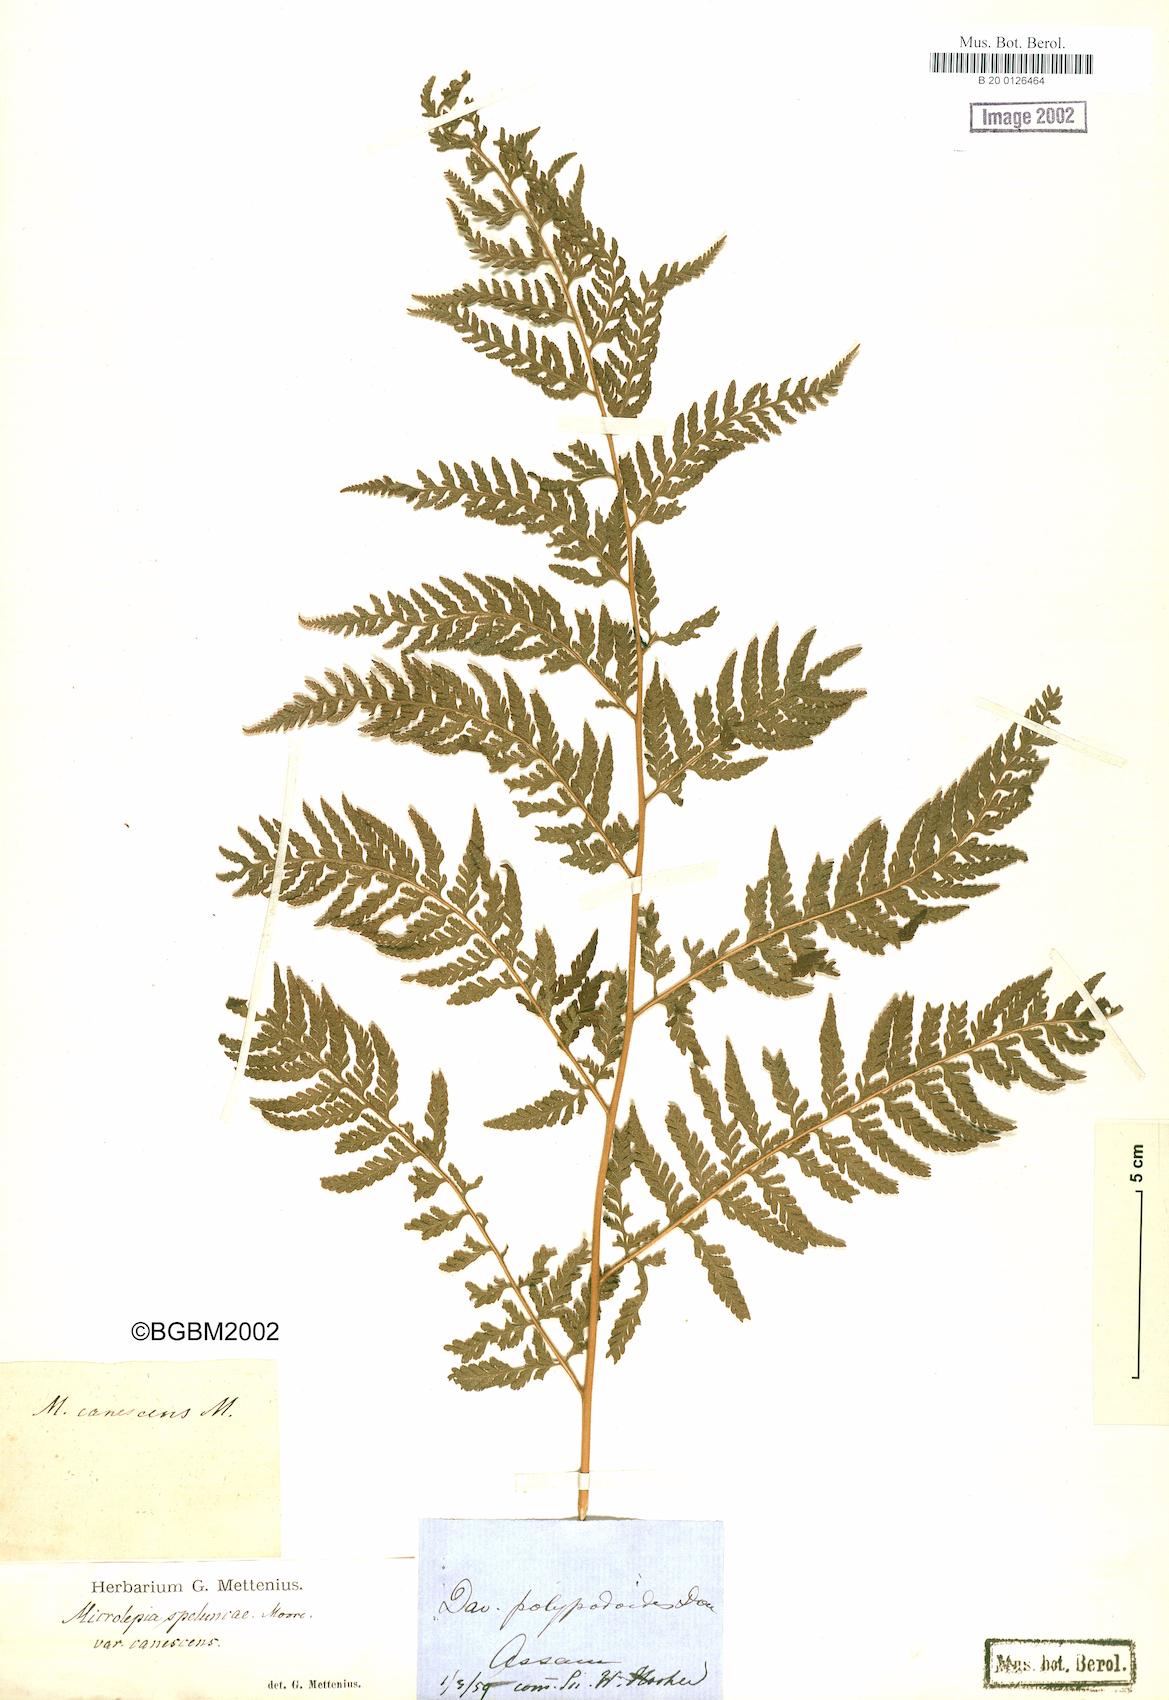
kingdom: Plantae
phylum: Tracheophyta
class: Polypodiopsida
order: Polypodiales
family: Dennstaedtiaceae
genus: Microlepia
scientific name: Microlepia speluncae
